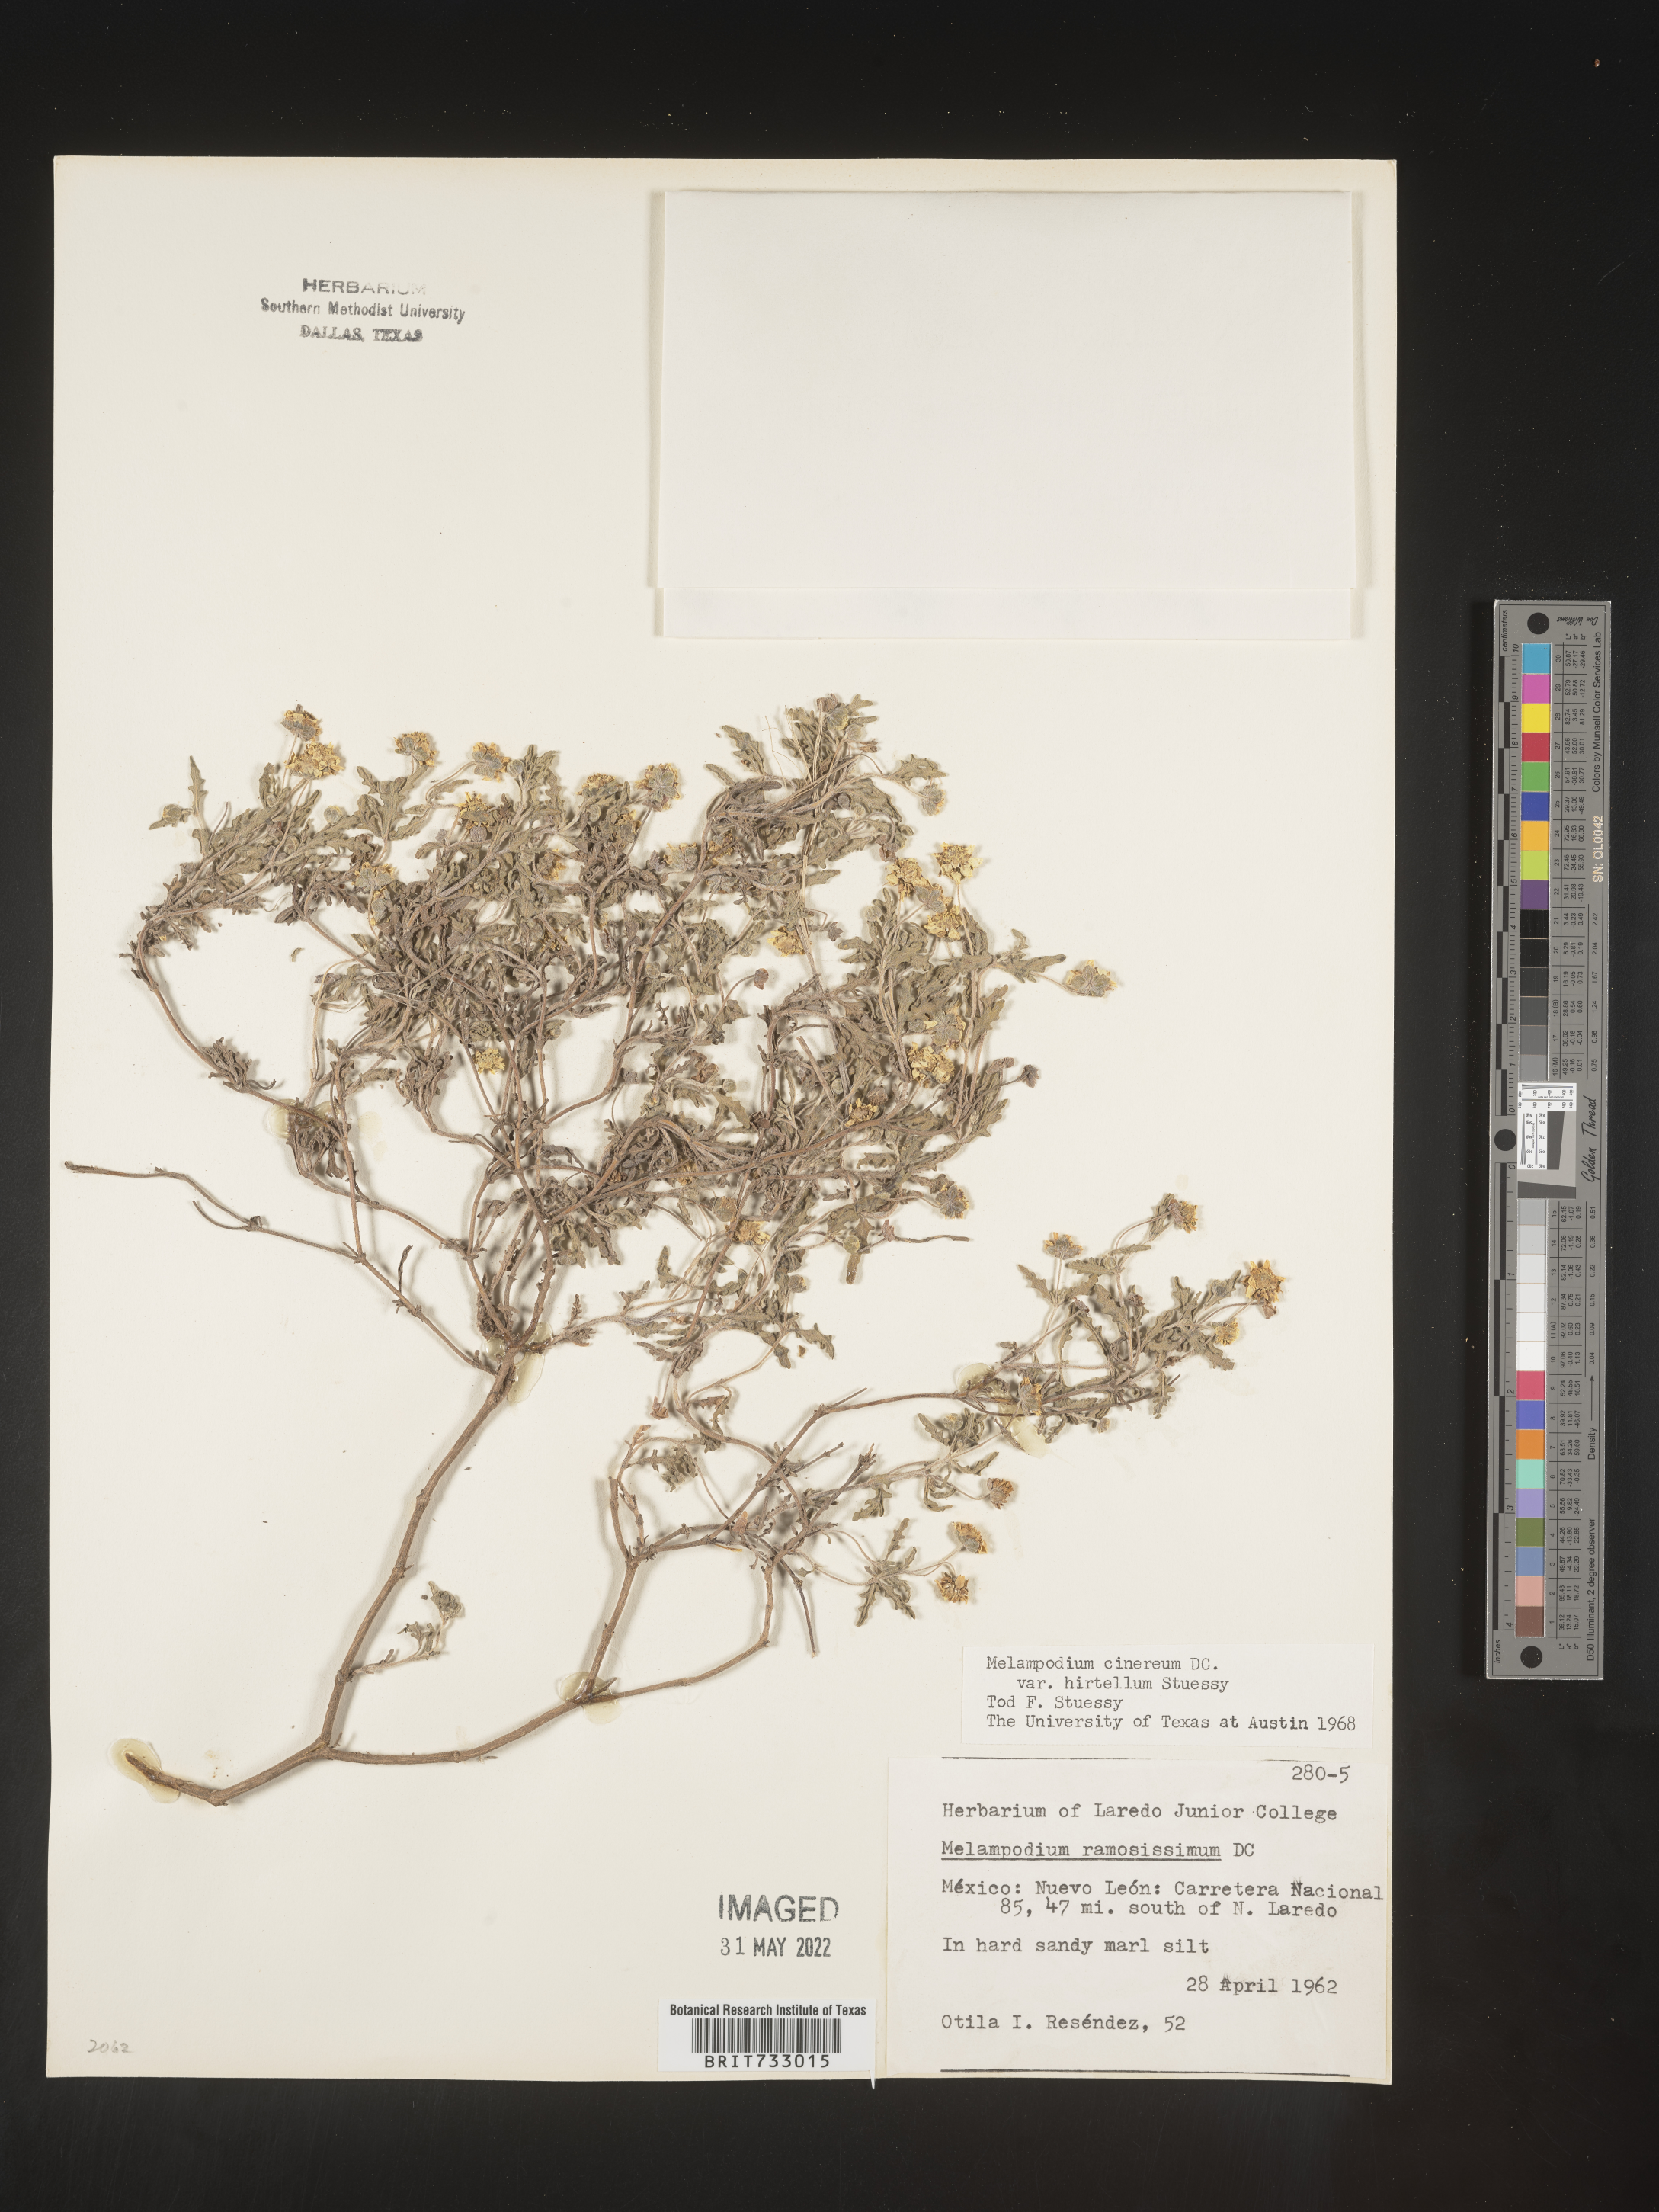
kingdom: Plantae
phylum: Tracheophyta
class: Magnoliopsida
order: Asterales
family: Asteraceae
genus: Melampodium
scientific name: Melampodium
